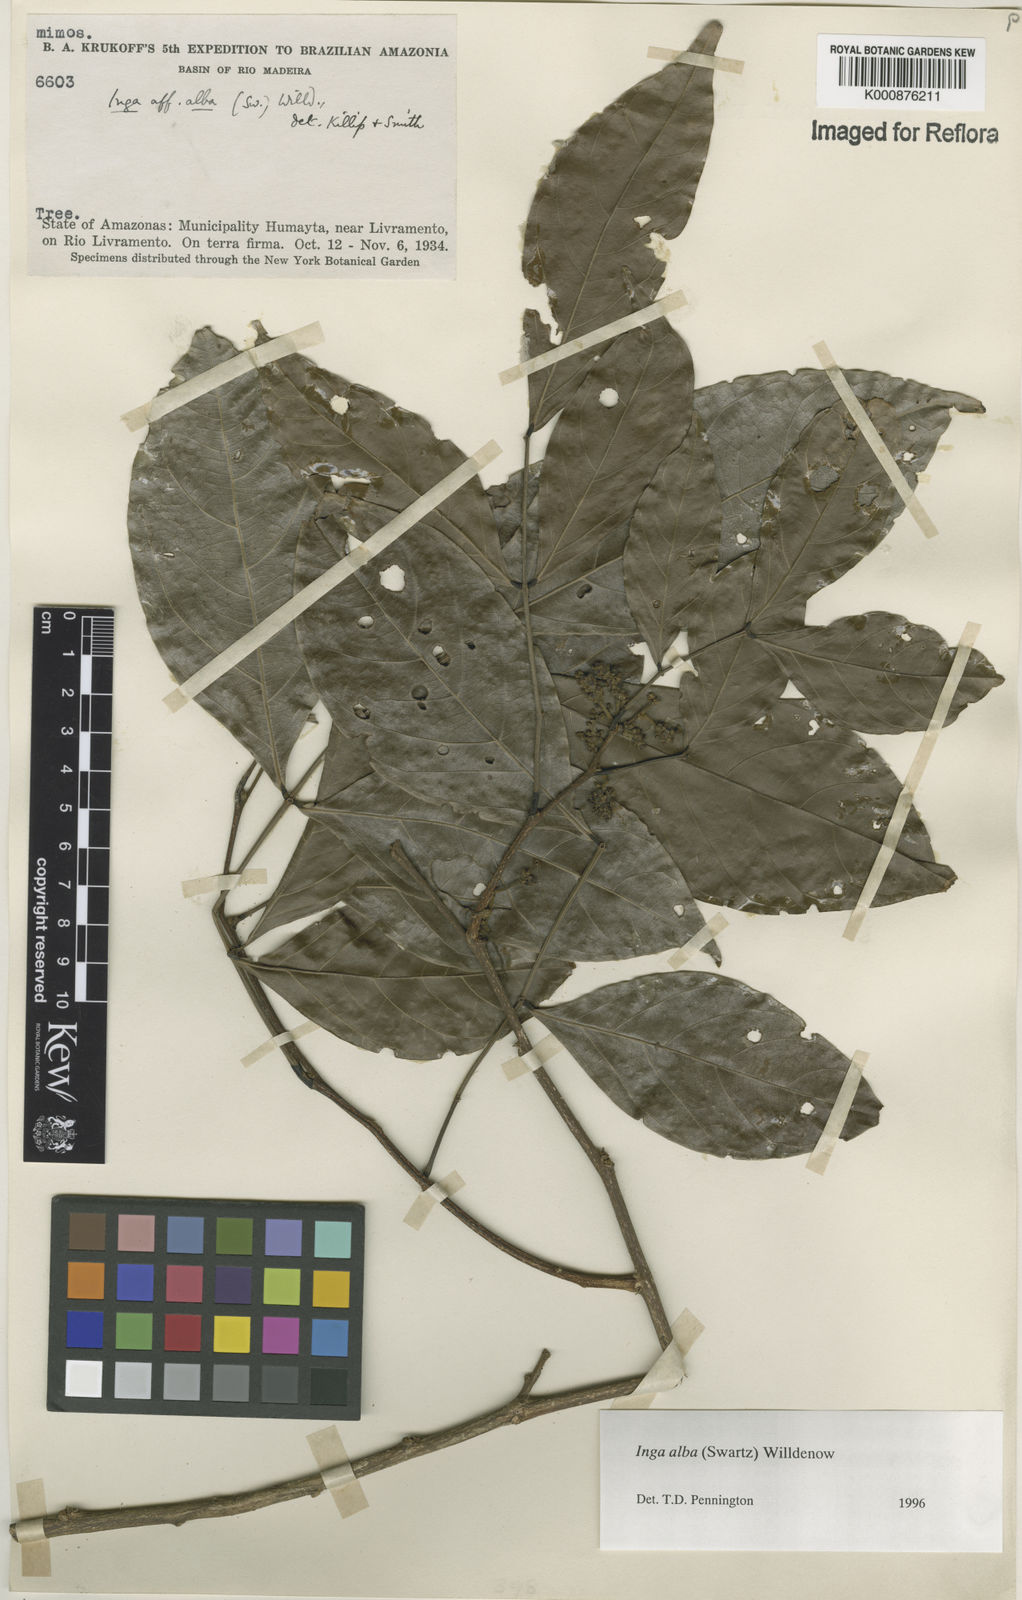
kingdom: Plantae
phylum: Tracheophyta
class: Magnoliopsida
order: Fabales
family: Fabaceae
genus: Inga
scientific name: Inga alba
